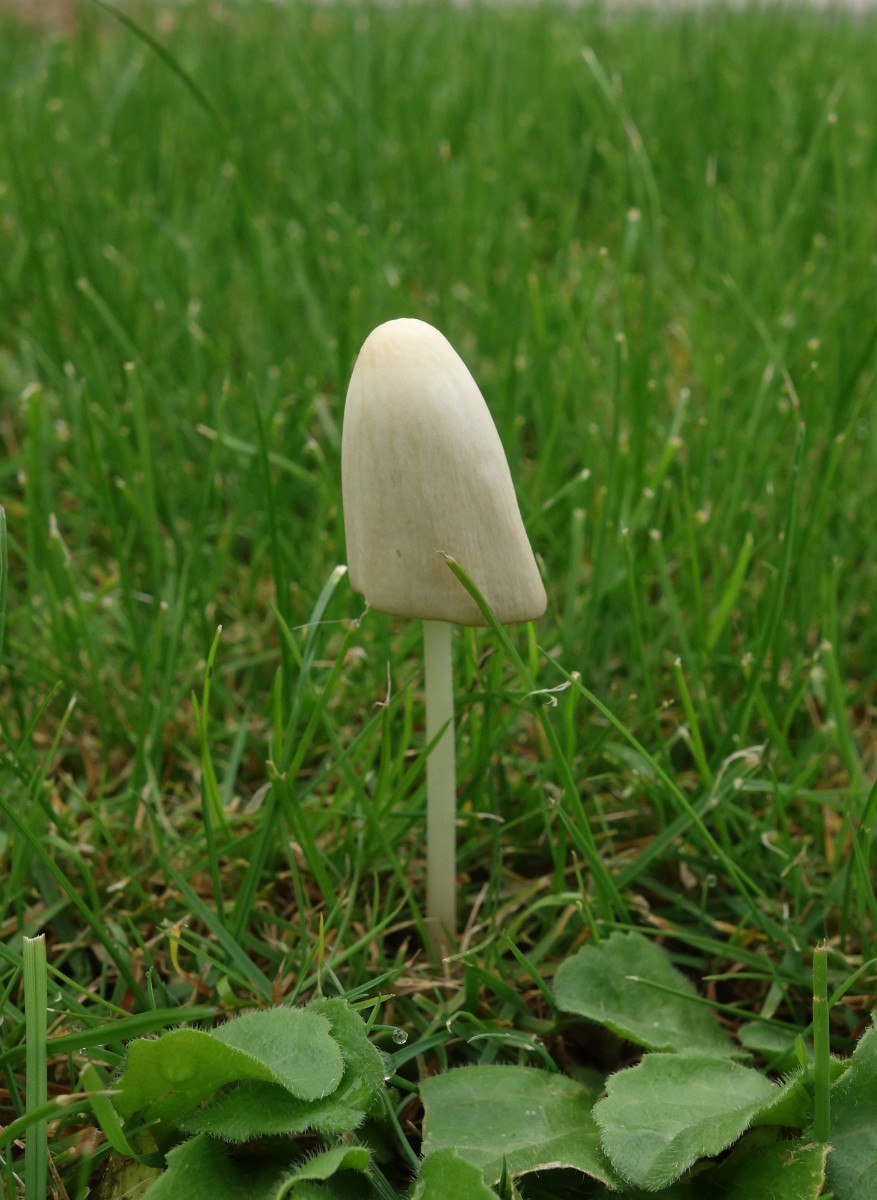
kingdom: Fungi
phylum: Basidiomycota
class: Agaricomycetes
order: Agaricales
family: Bolbitiaceae
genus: Conocybe
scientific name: Conocybe apala
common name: mælkehvid keglehat
